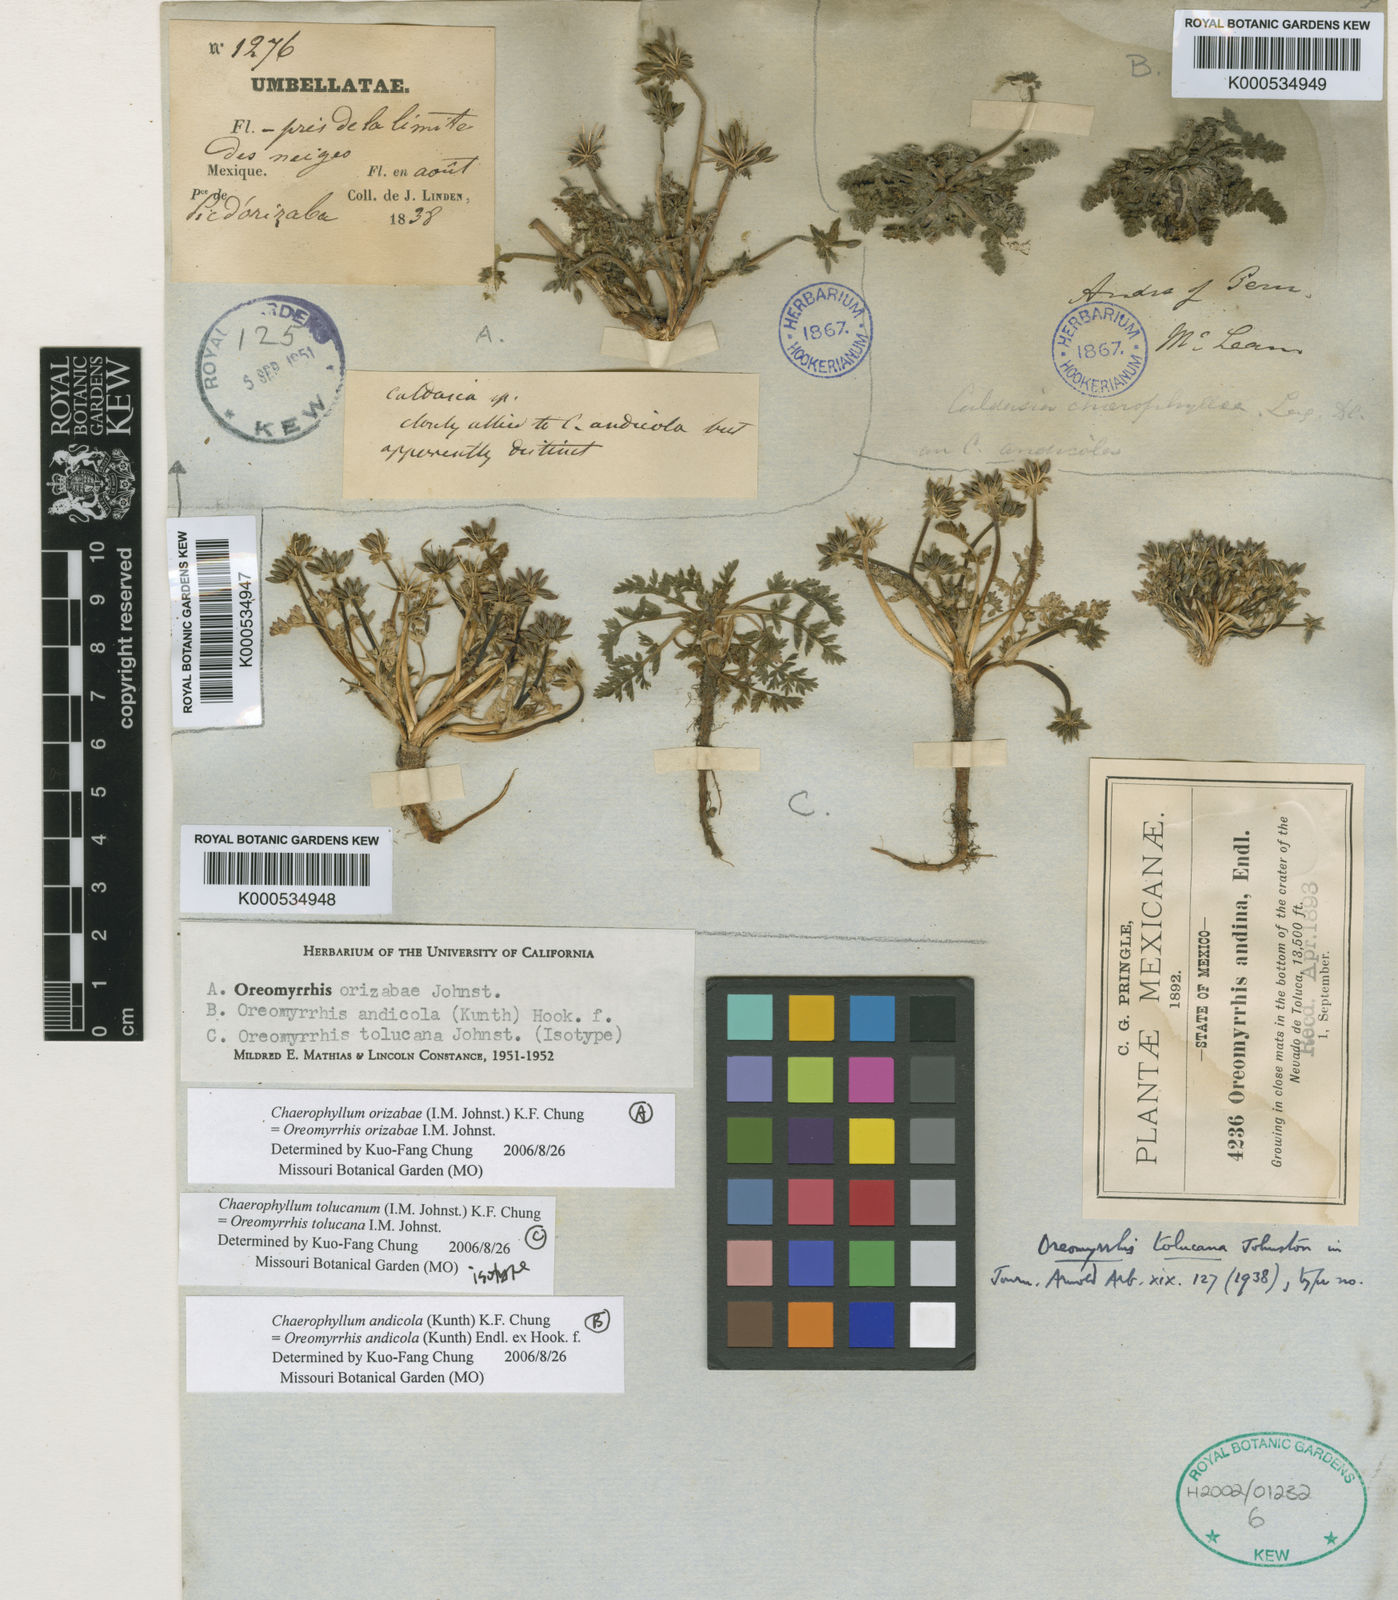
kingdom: Plantae
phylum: Tracheophyta
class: Magnoliopsida
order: Apiales
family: Apiaceae
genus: Chaerophyllum
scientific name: Chaerophyllum tolucanum
